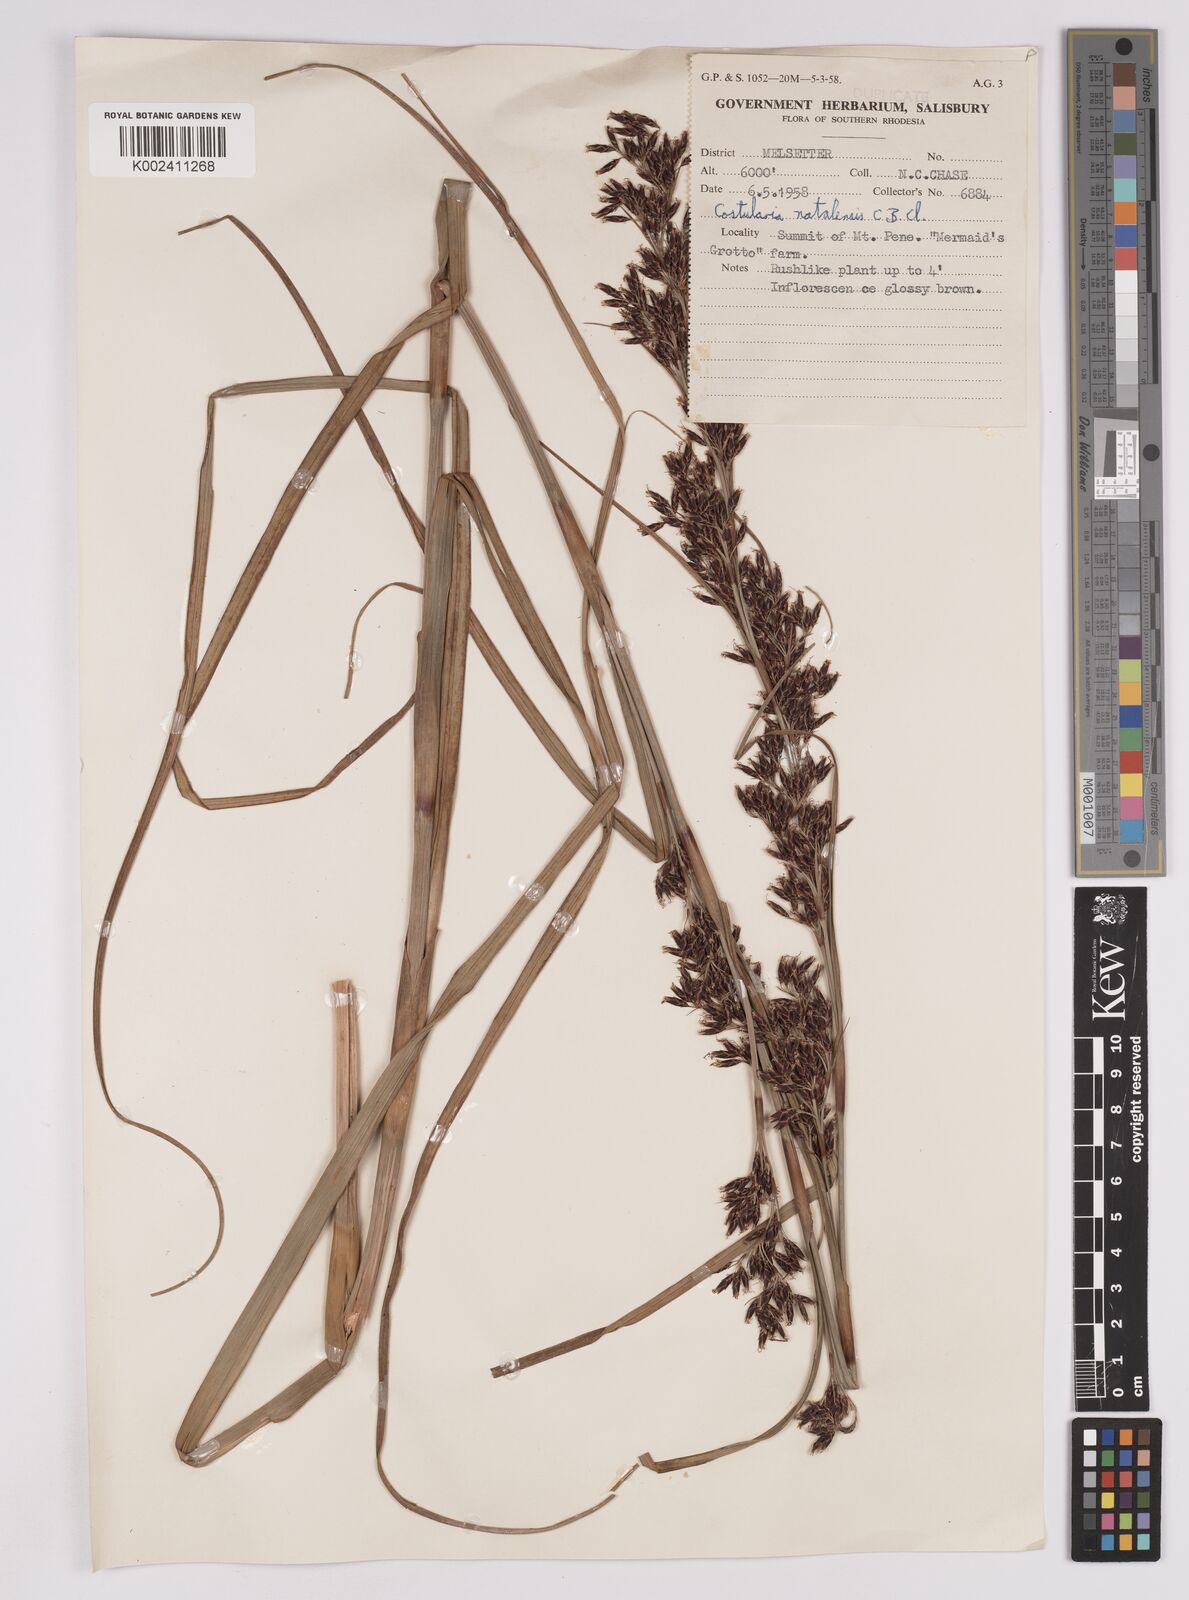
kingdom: Plantae
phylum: Tracheophyta
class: Liliopsida
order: Poales
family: Cyperaceae
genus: Costularia
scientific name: Costularia natalensis
